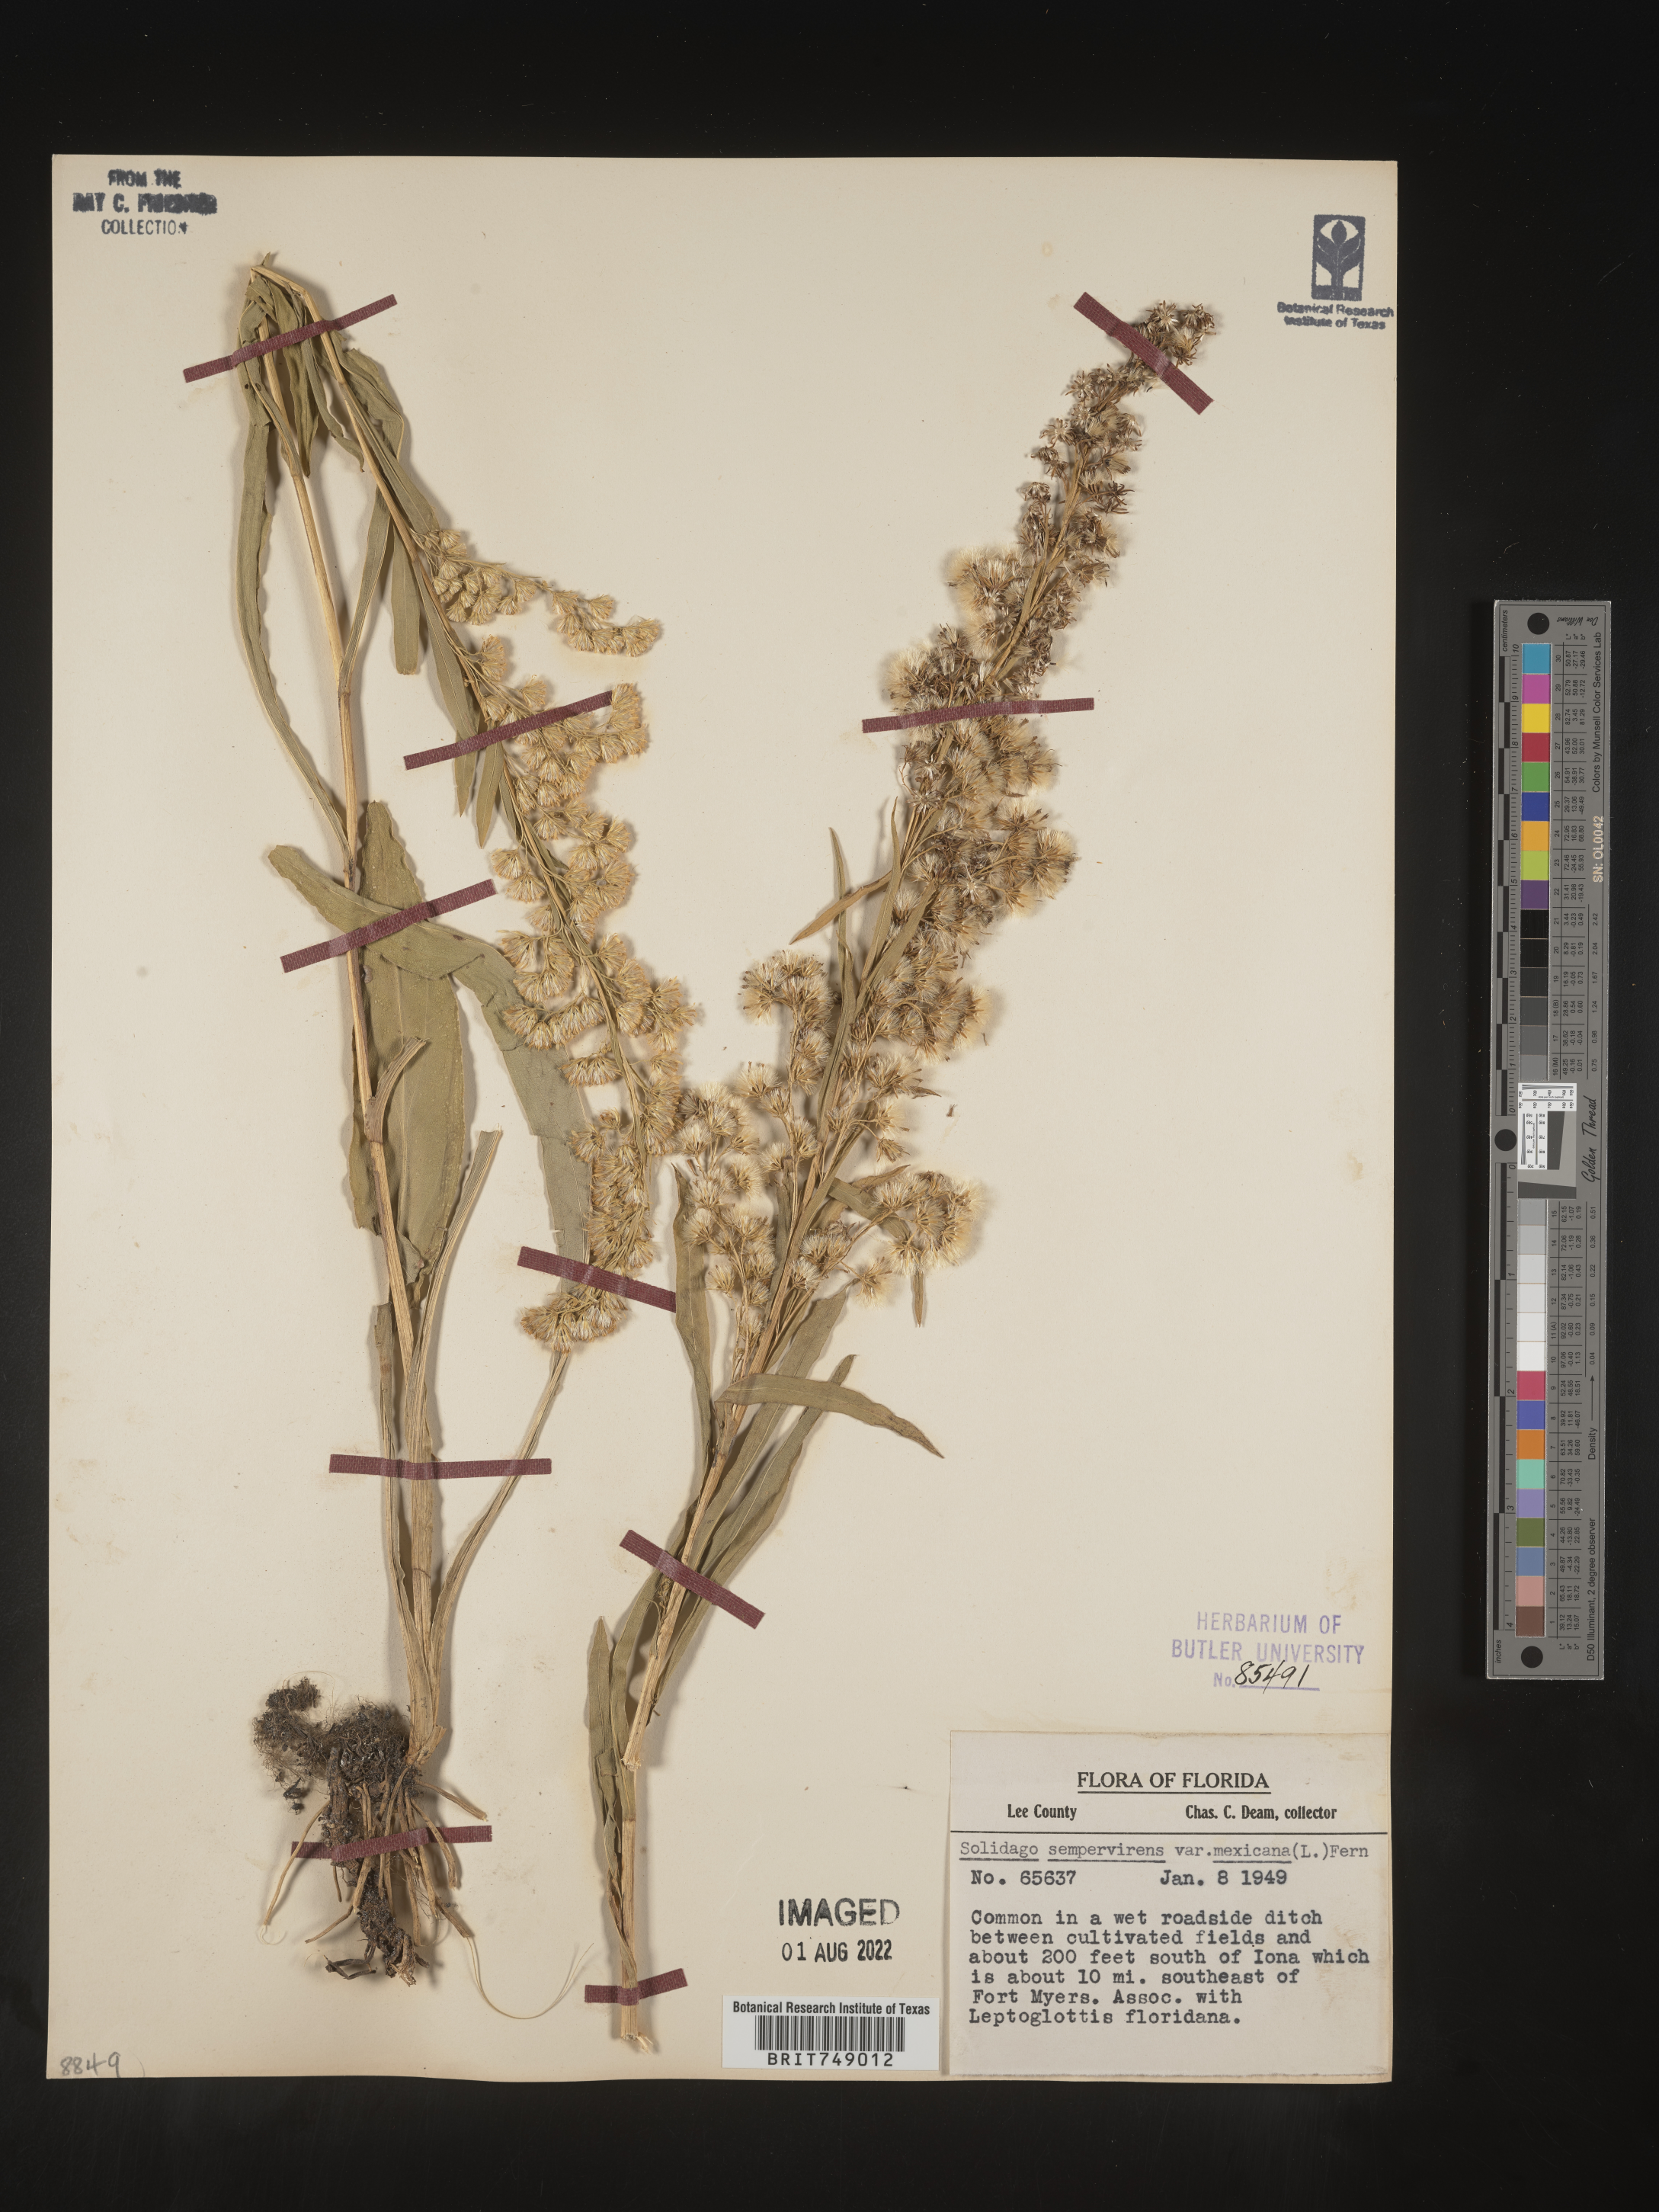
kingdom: Plantae
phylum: Tracheophyta
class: Magnoliopsida
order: Asterales
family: Asteraceae
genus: Solidago
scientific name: Solidago sempervirens
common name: Salt-marsh goldenrod
